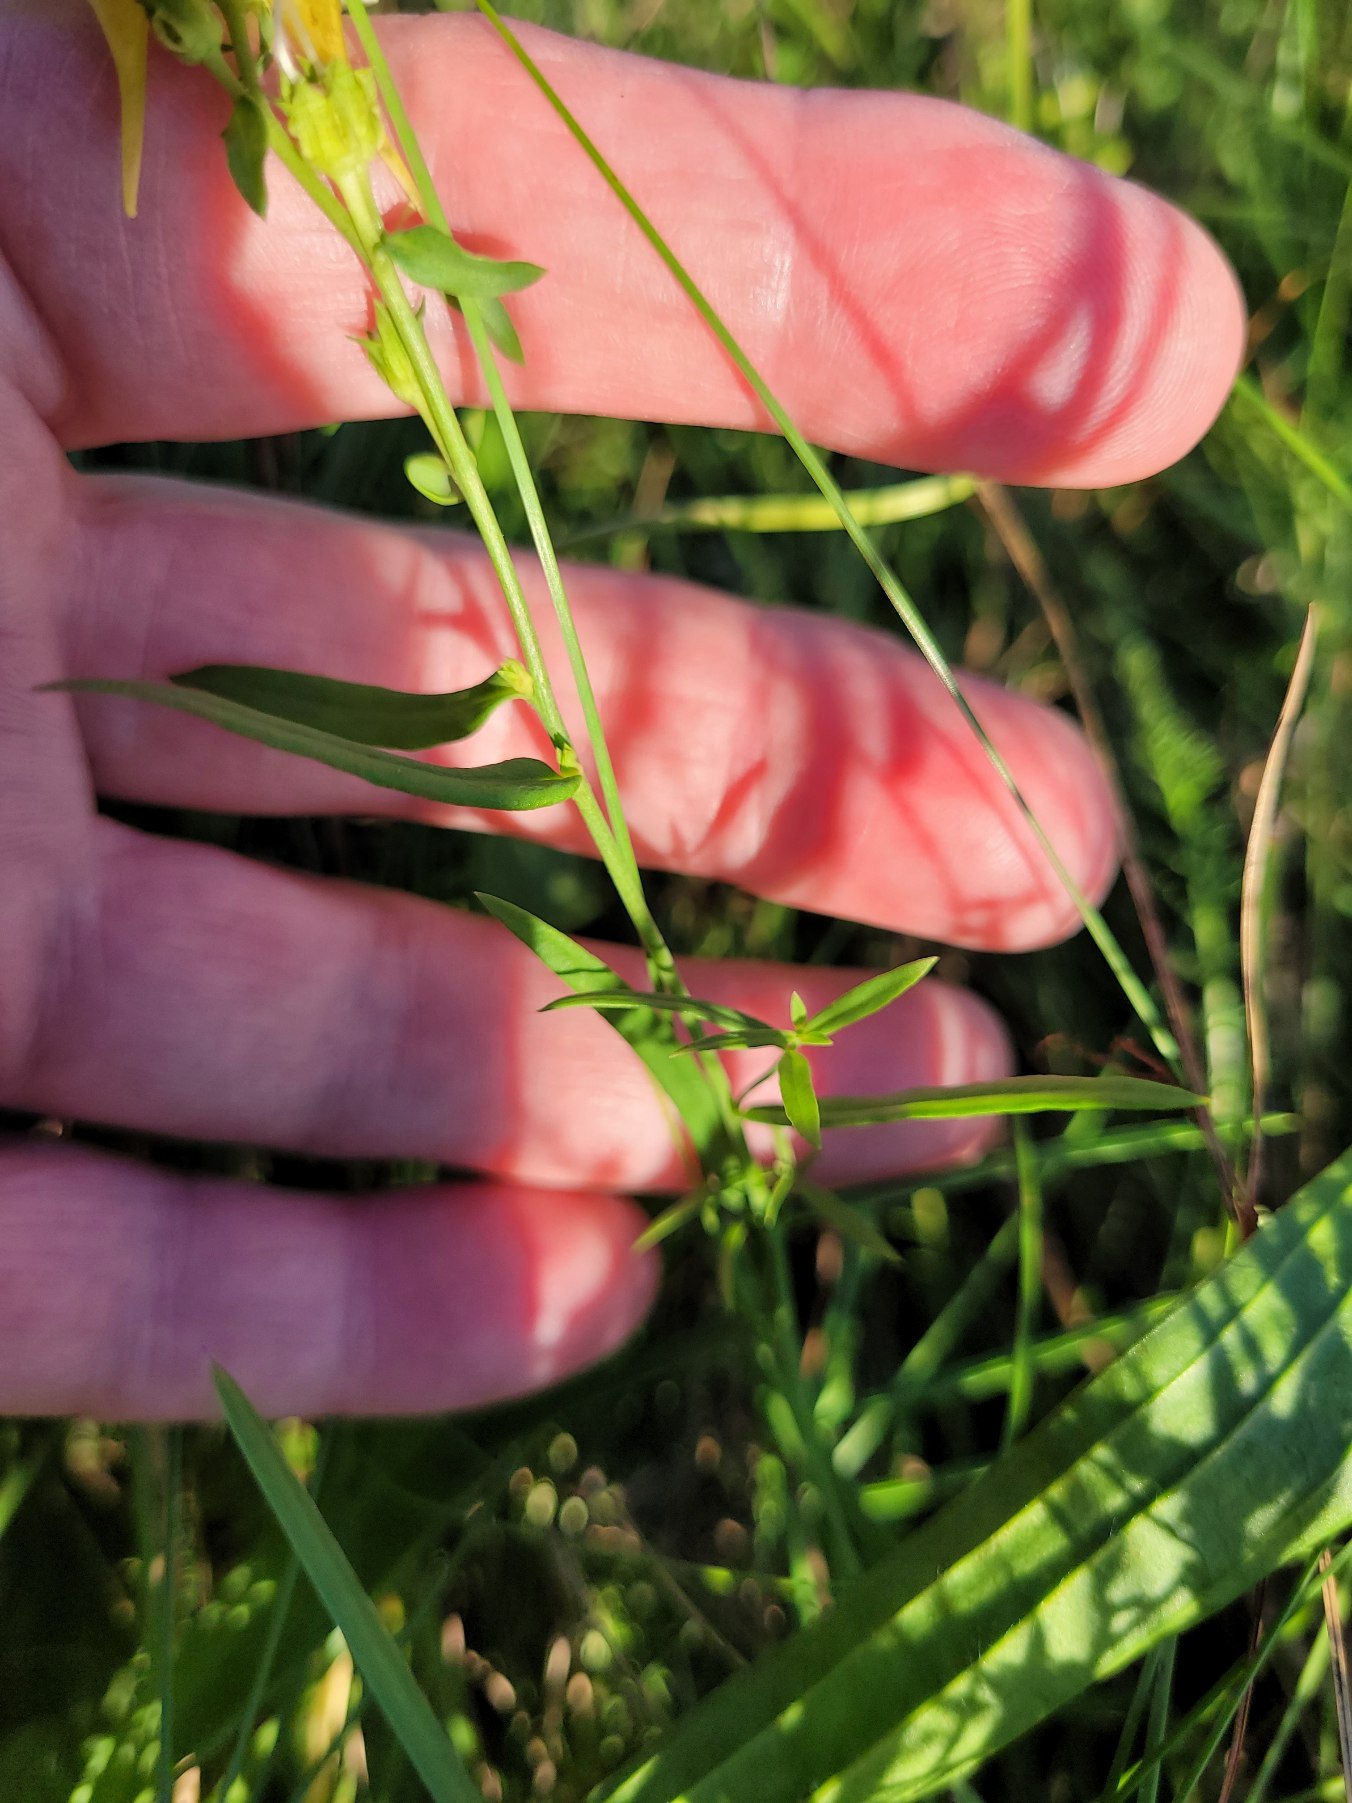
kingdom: Plantae
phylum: Tracheophyta
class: Magnoliopsida
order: Lamiales
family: Plantaginaceae
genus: Linaria
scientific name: Linaria vulgaris
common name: Almindelig torskemund
